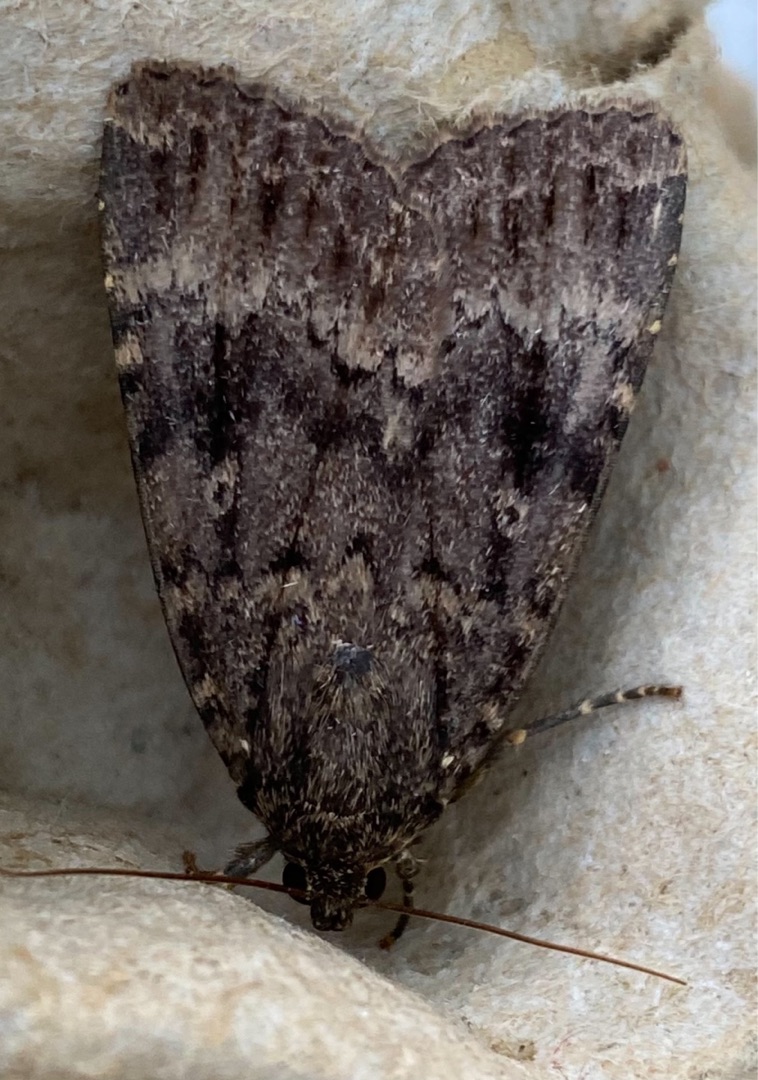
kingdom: Animalia
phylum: Arthropoda
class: Insecta
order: Lepidoptera
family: Noctuidae
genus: Amphipyra
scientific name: Amphipyra pyramidea
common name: Pyramideugle
